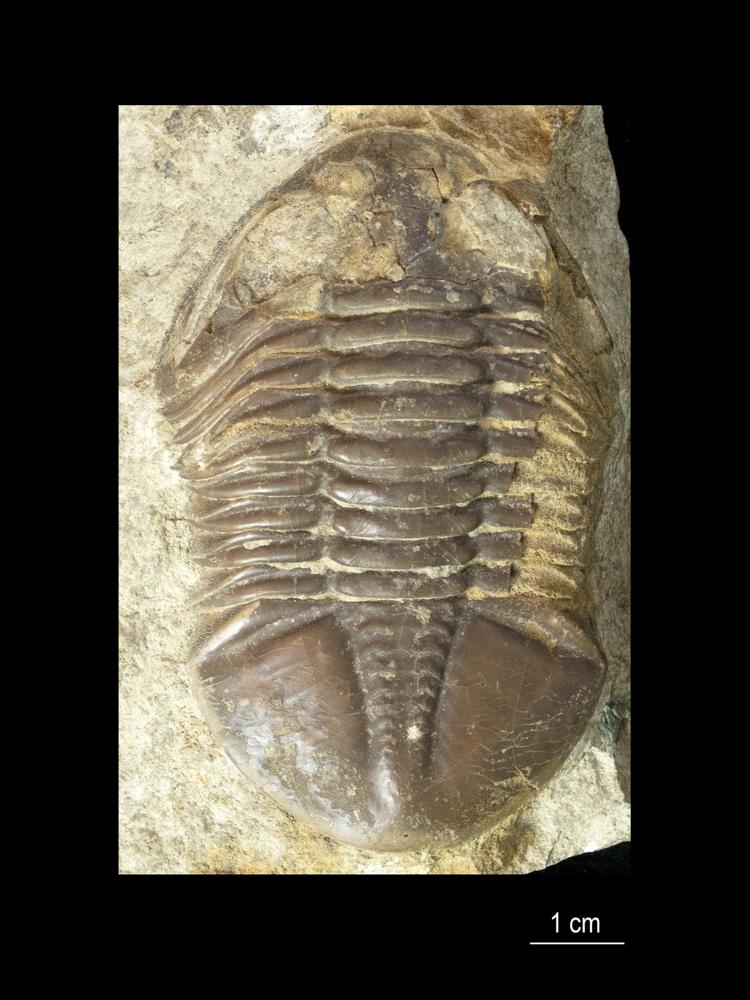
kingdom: Animalia
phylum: Arthropoda
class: Trilobita
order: Asaphida
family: Asaphidae
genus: Asaphus
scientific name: Asaphus cornutus
